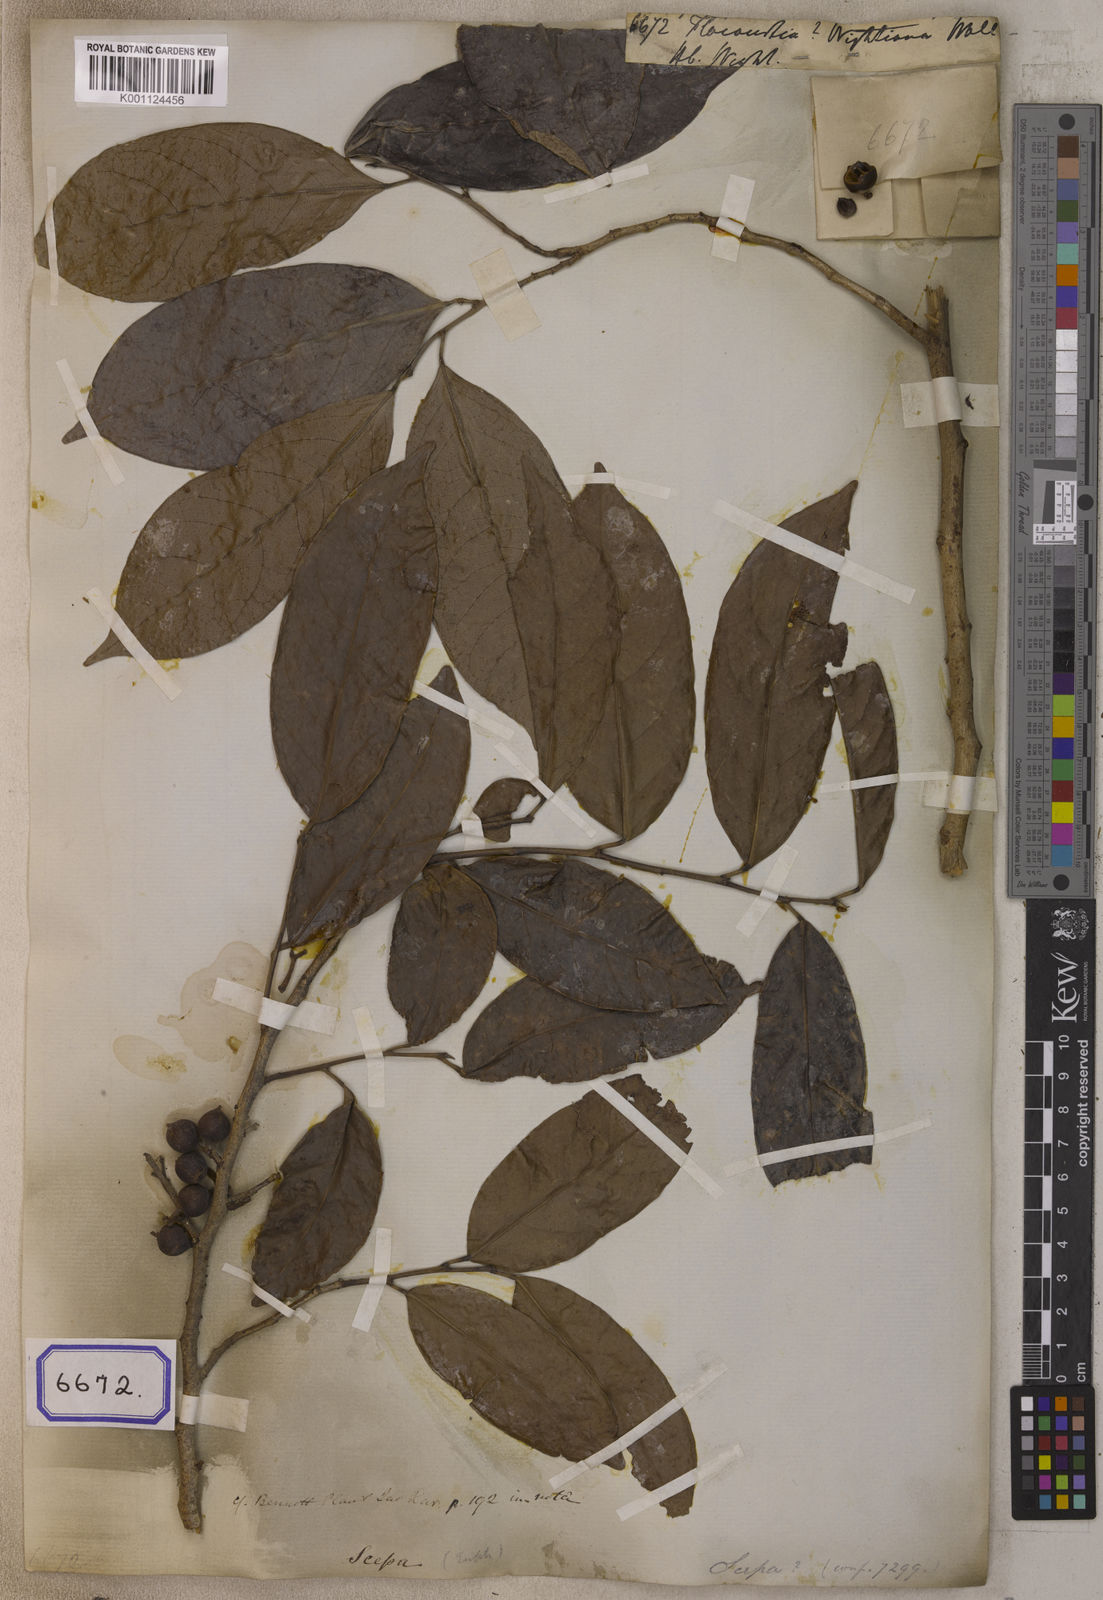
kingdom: Plantae
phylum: Tracheophyta
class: Magnoliopsida
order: Malpighiales
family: Salicaceae
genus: Flacourtia
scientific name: Flacourtia
